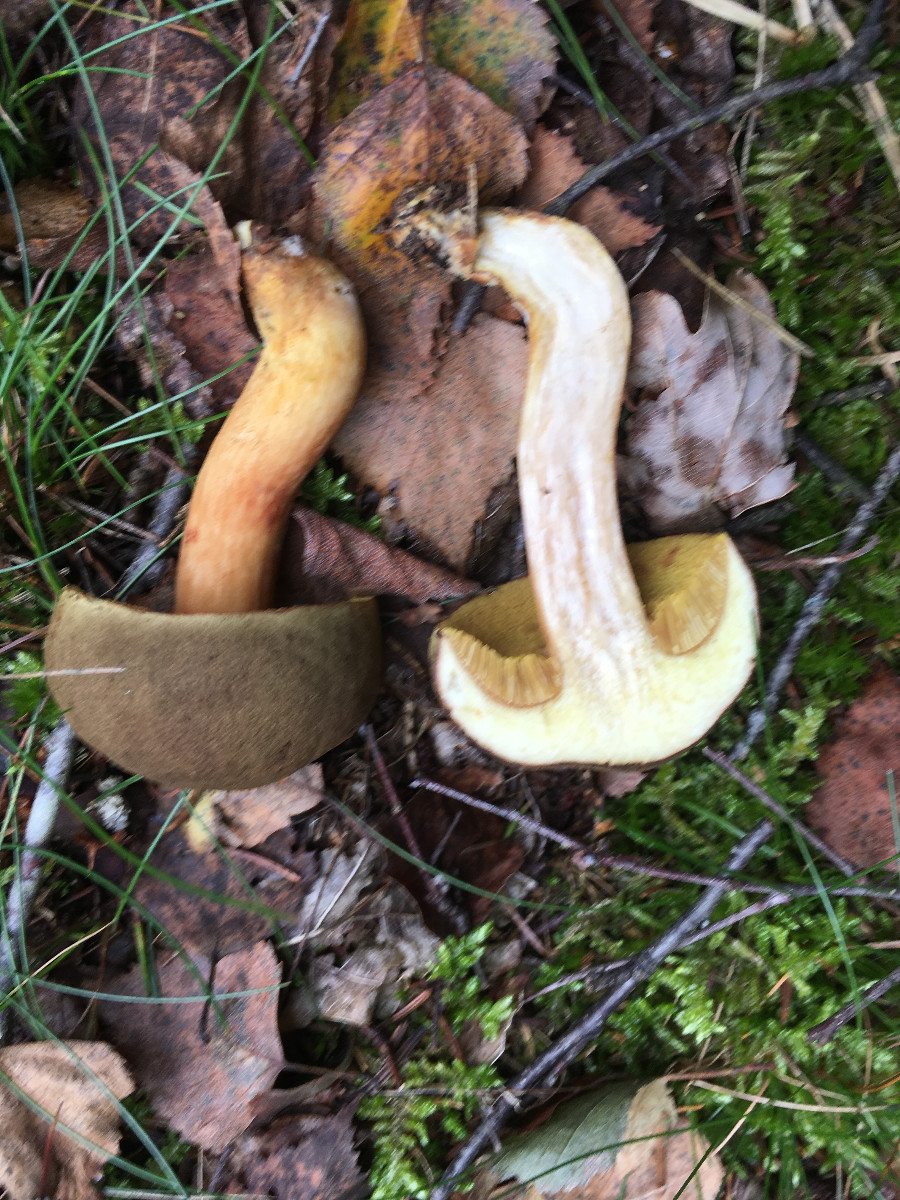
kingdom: Fungi
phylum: Basidiomycota
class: Agaricomycetes
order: Boletales
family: Boletaceae
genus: Xerocomellus
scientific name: Xerocomellus chrysenteron
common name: rødsprukken rørhat
